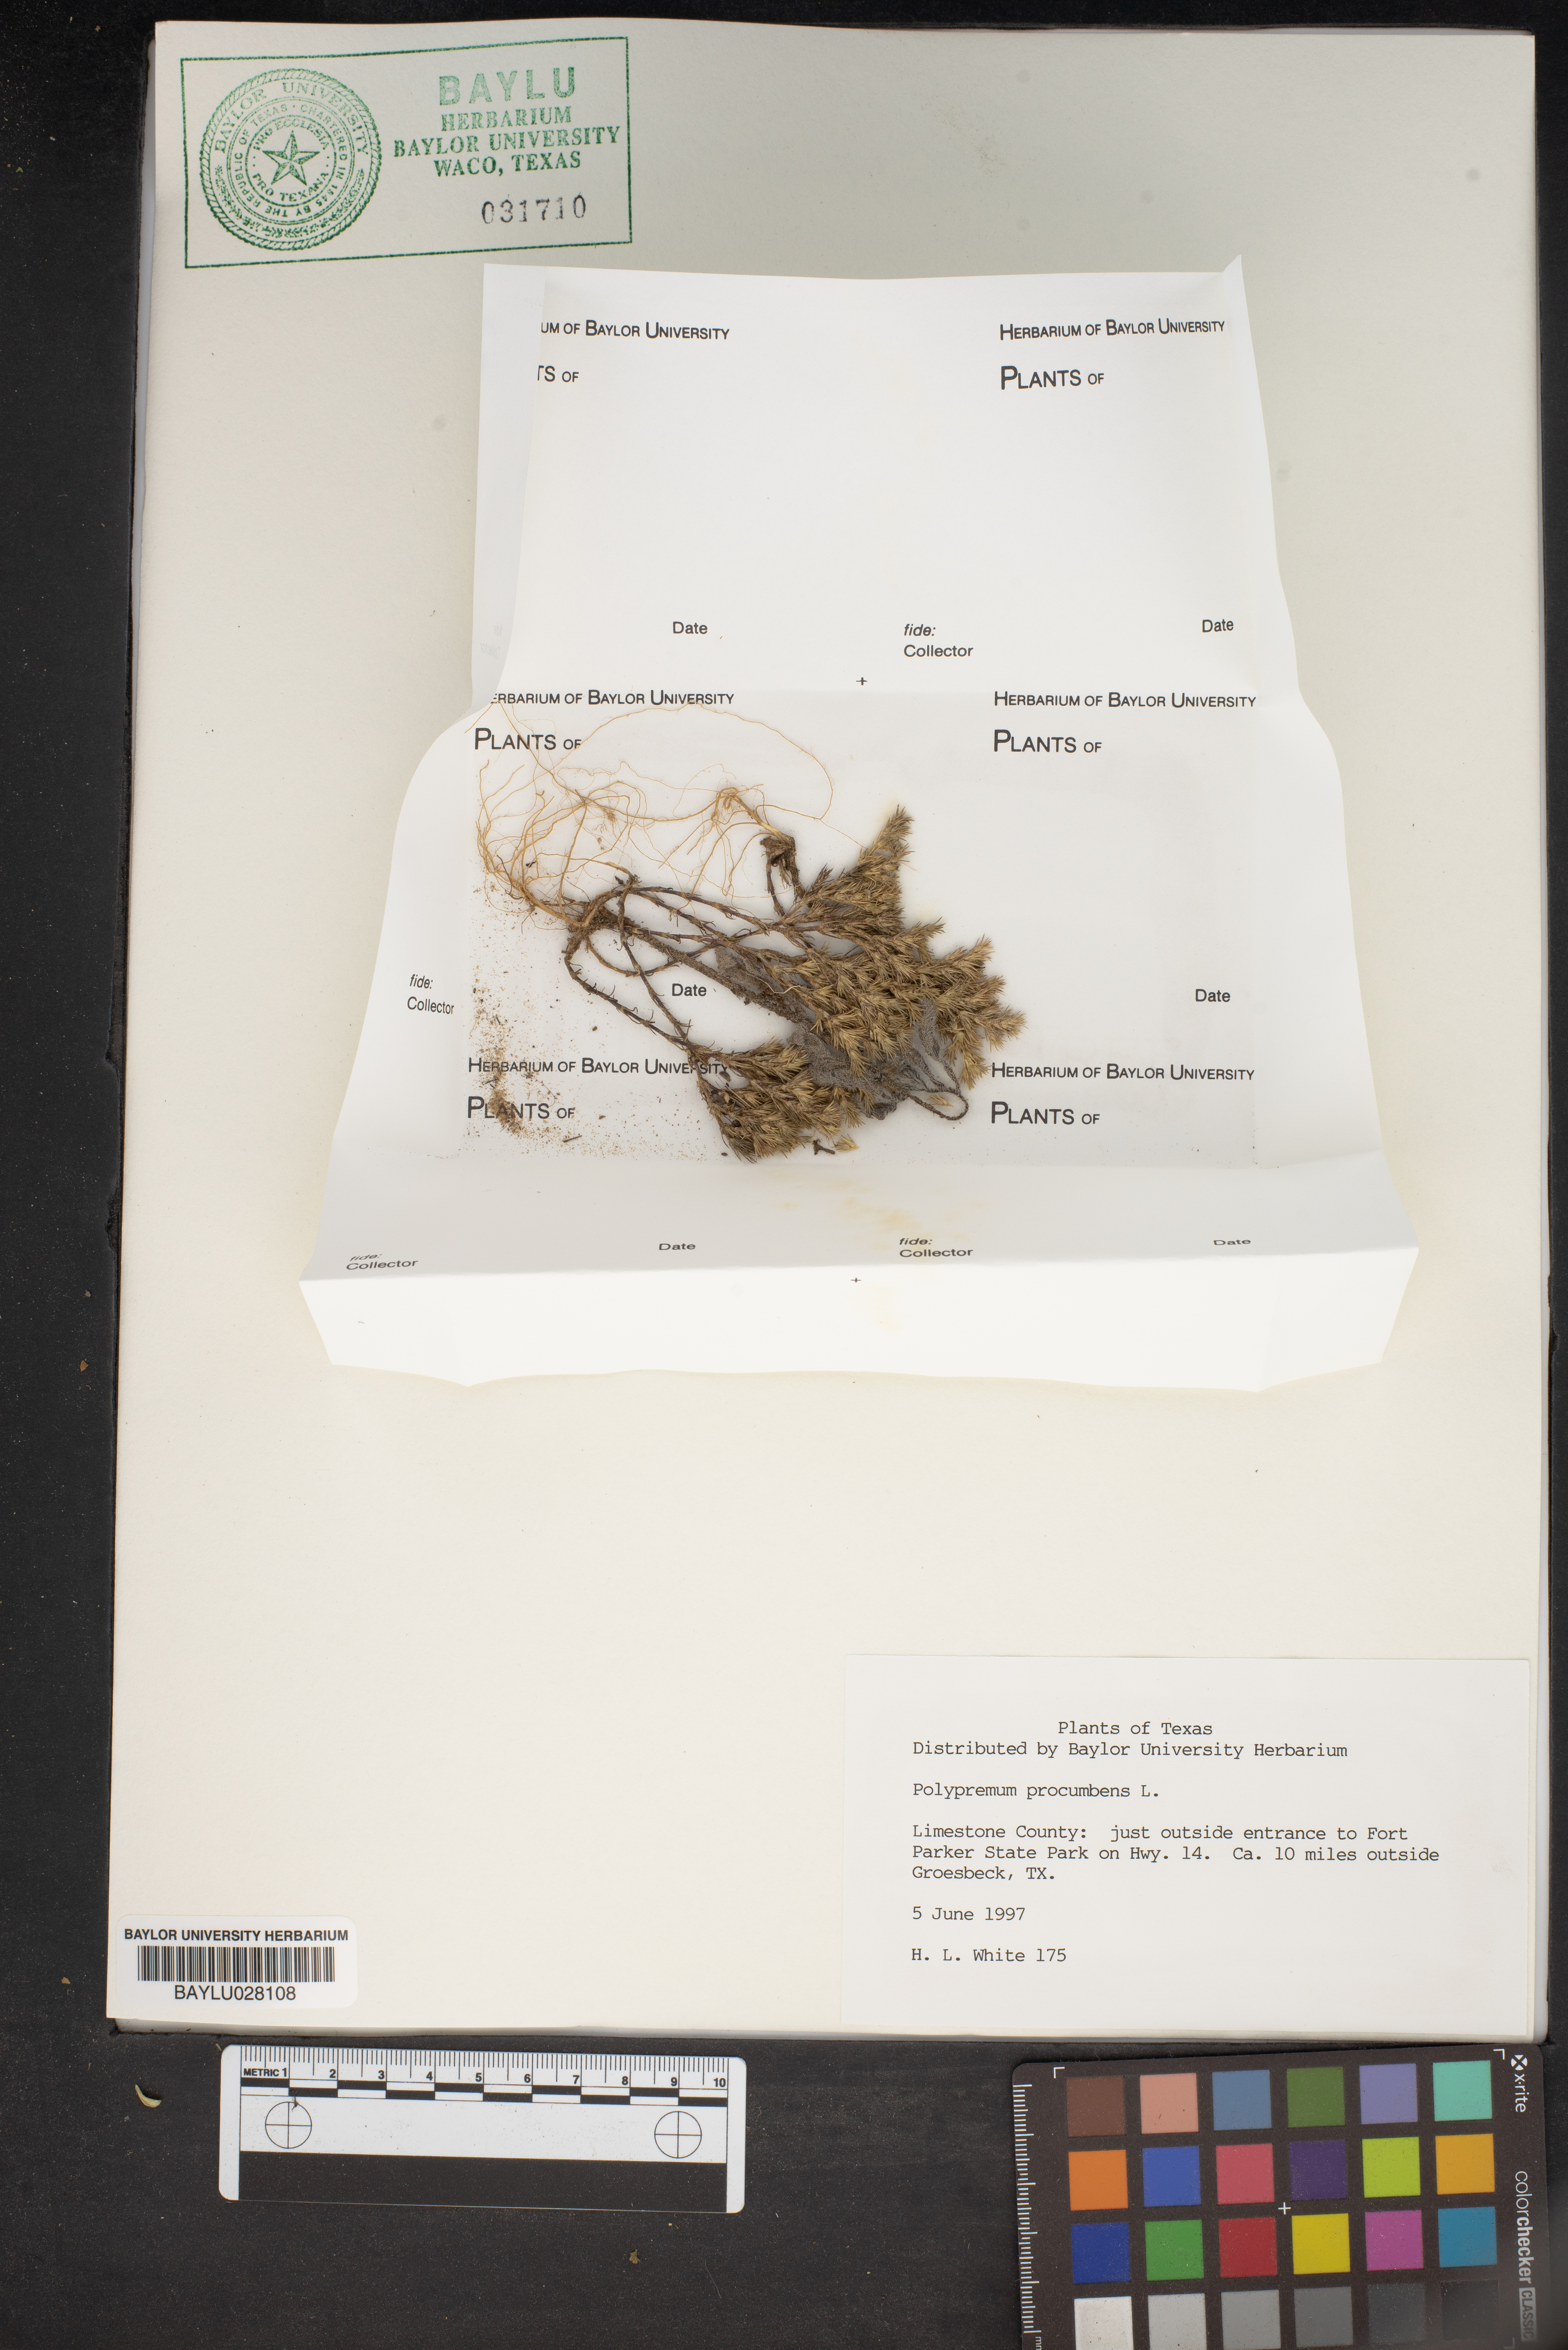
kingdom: Plantae
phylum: Tracheophyta
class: Magnoliopsida
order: Lamiales
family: Tetrachondraceae
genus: Polypremum
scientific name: Polypremum procumbens
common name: Juniper-leaf
